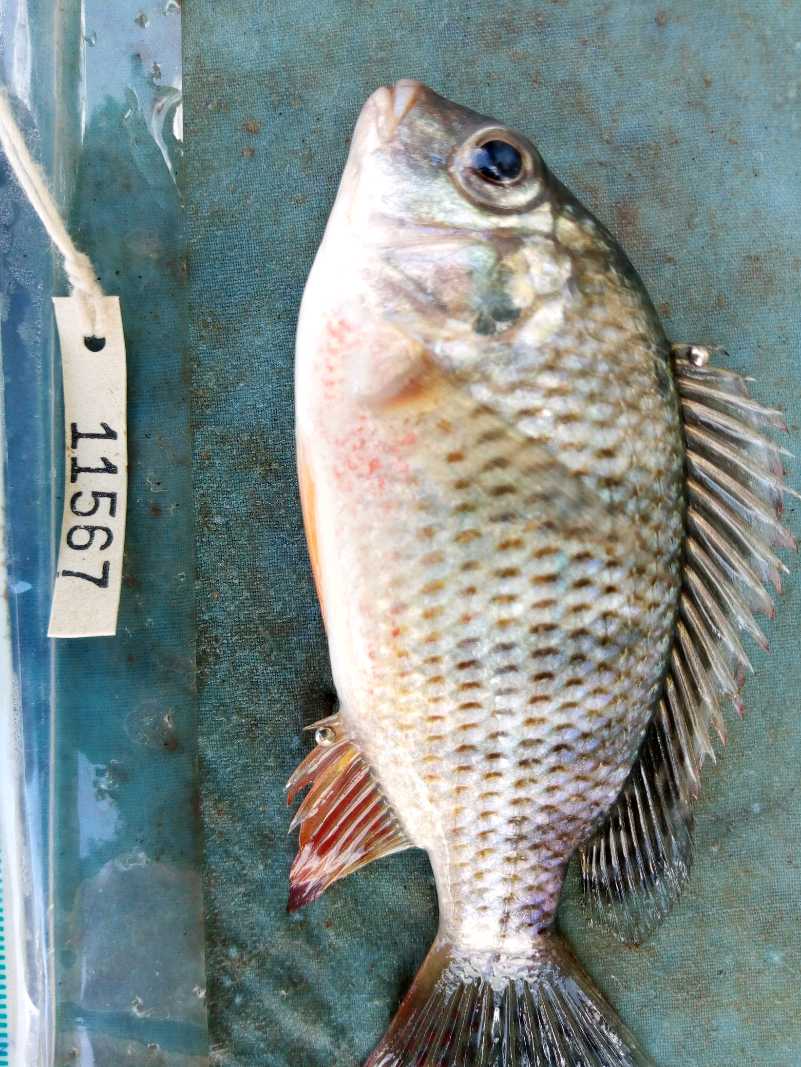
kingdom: Animalia
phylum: Chordata
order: Perciformes
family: Cichlidae
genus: Coptodon
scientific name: Coptodon rendalli
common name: Redbreast tilapia
